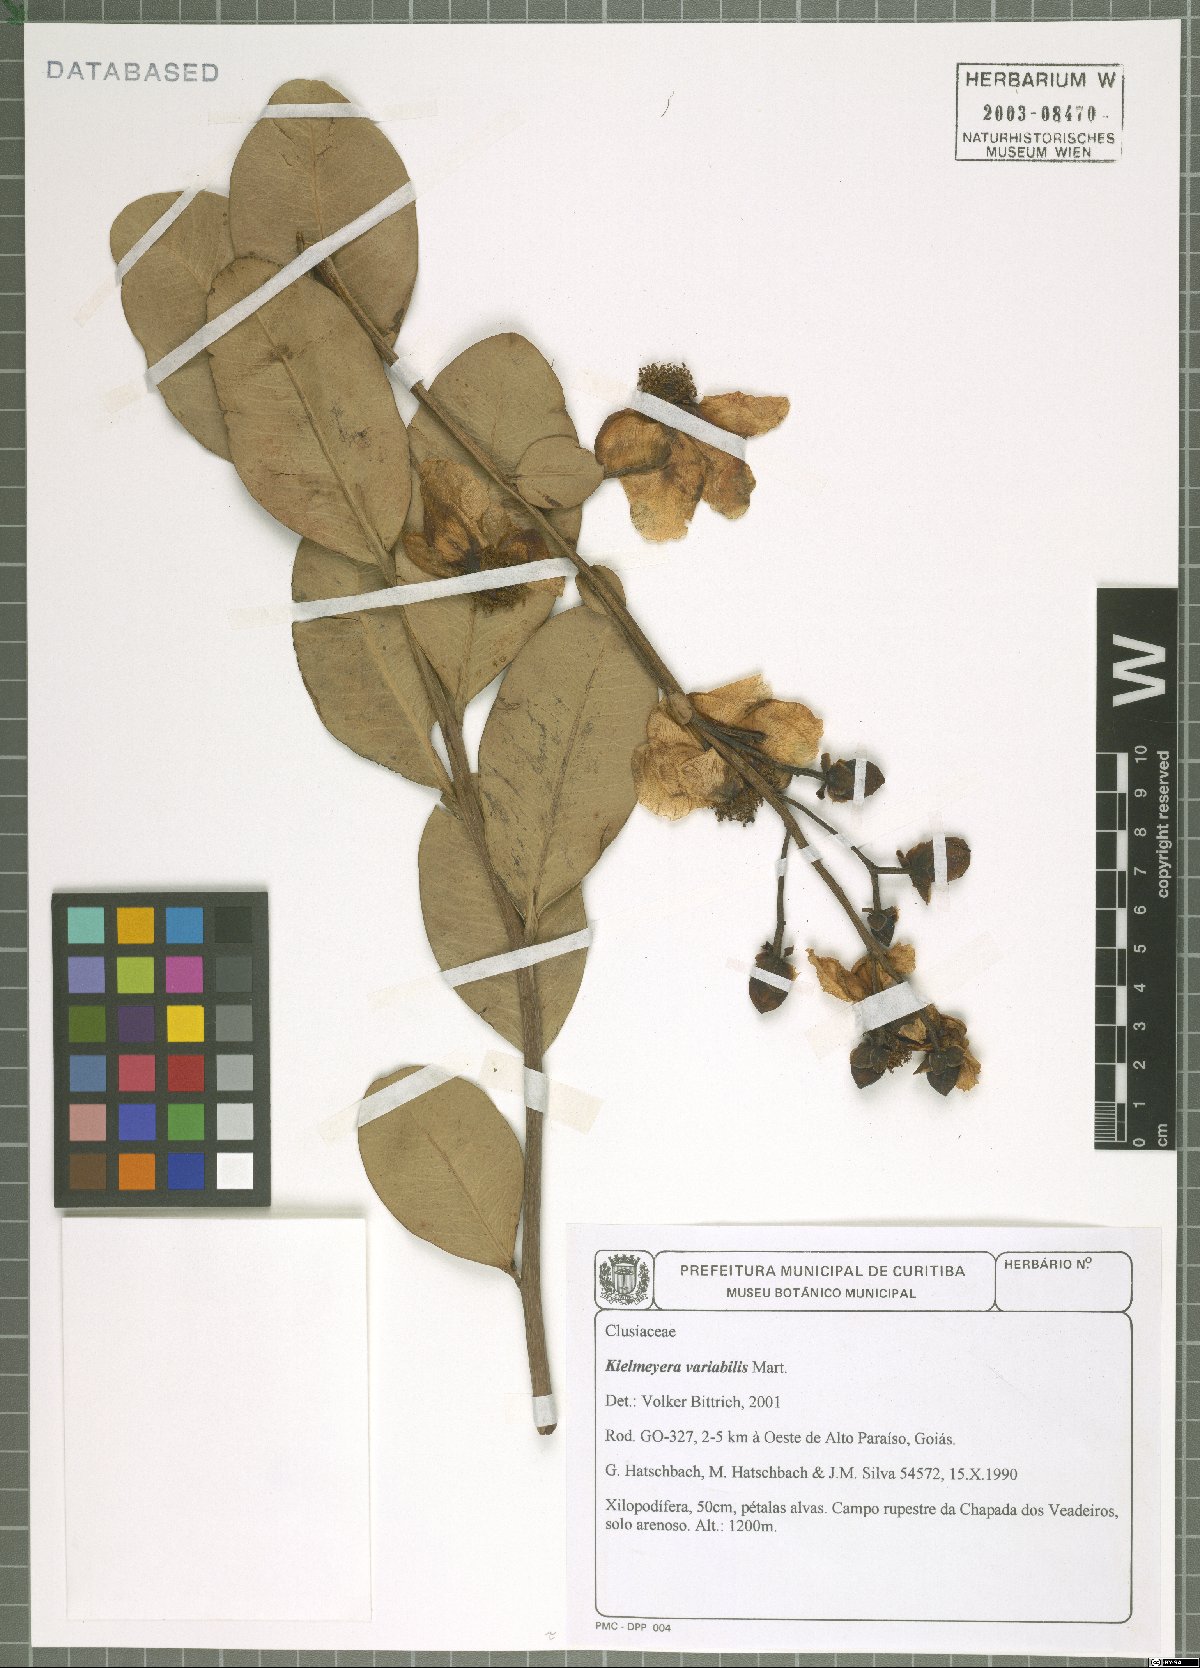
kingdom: Plantae
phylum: Tracheophyta
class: Magnoliopsida
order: Malpighiales
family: Calophyllaceae
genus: Kielmeyera
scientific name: Kielmeyera variabilis
